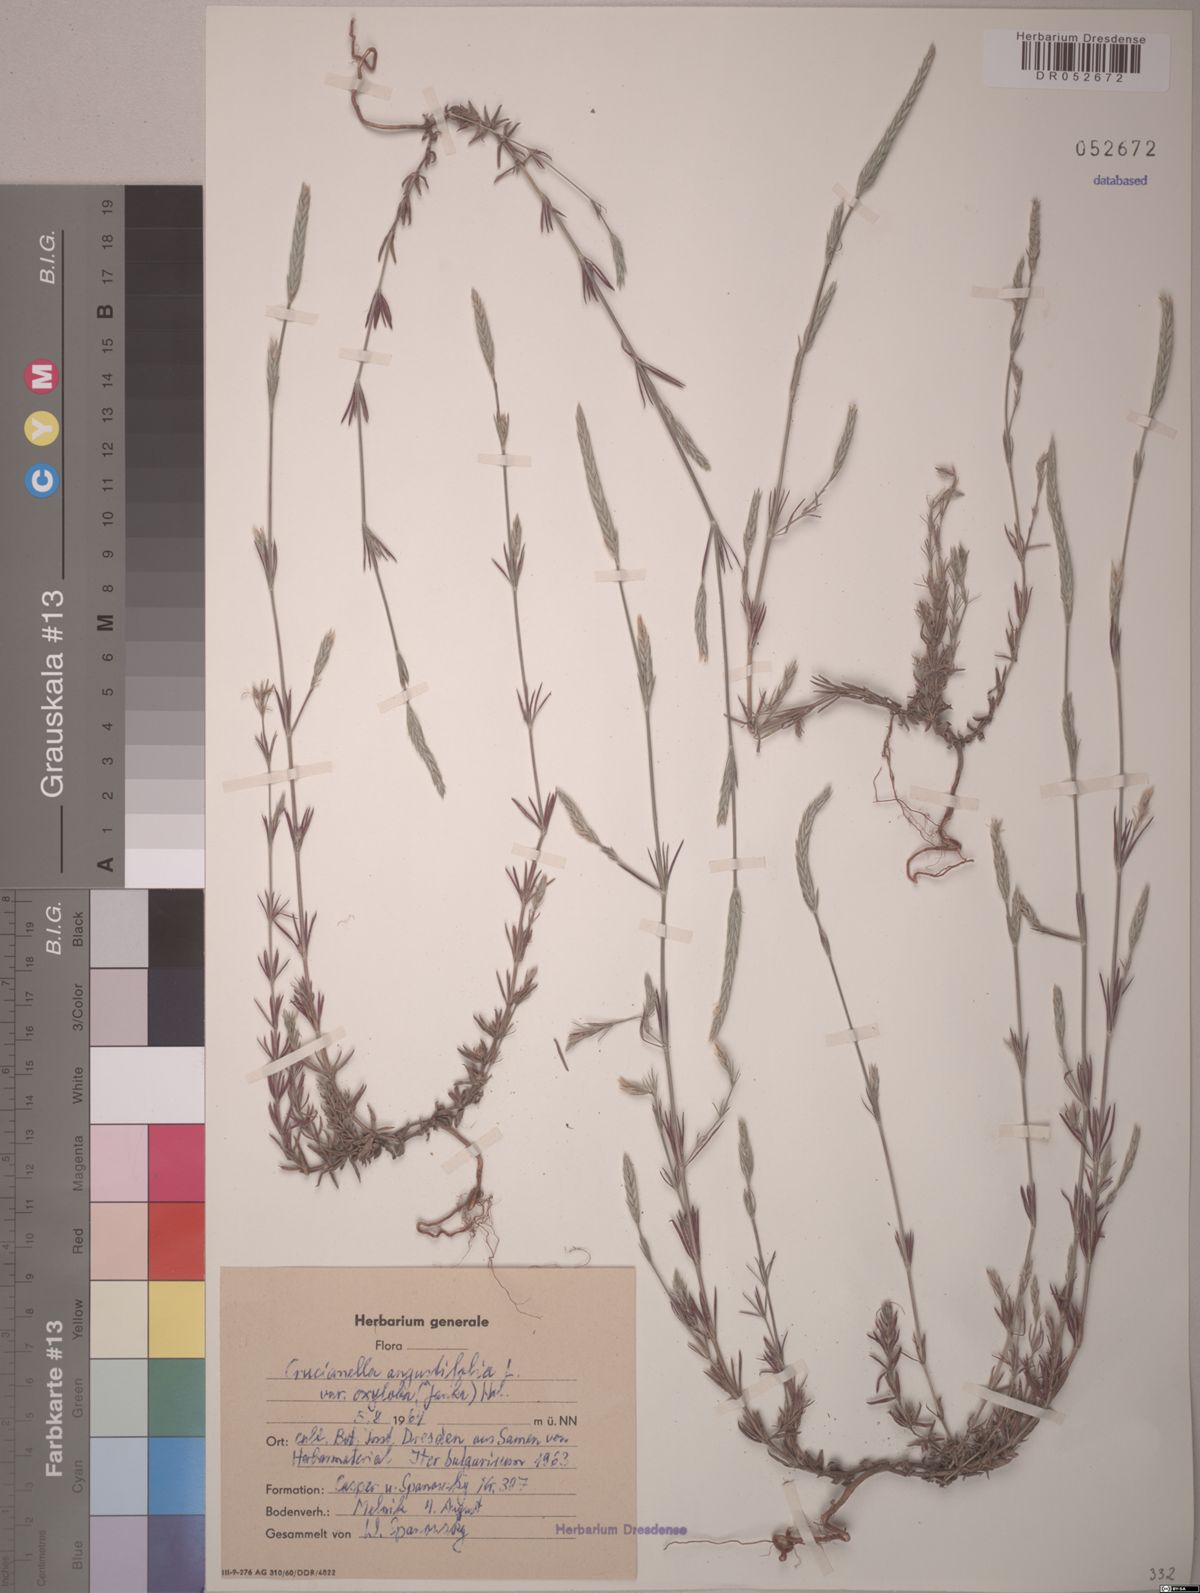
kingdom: Plantae
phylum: Tracheophyta
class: Magnoliopsida
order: Gentianales
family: Rubiaceae
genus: Crucianella
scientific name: Crucianella angustifolia
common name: Narrowleaf crucianella
